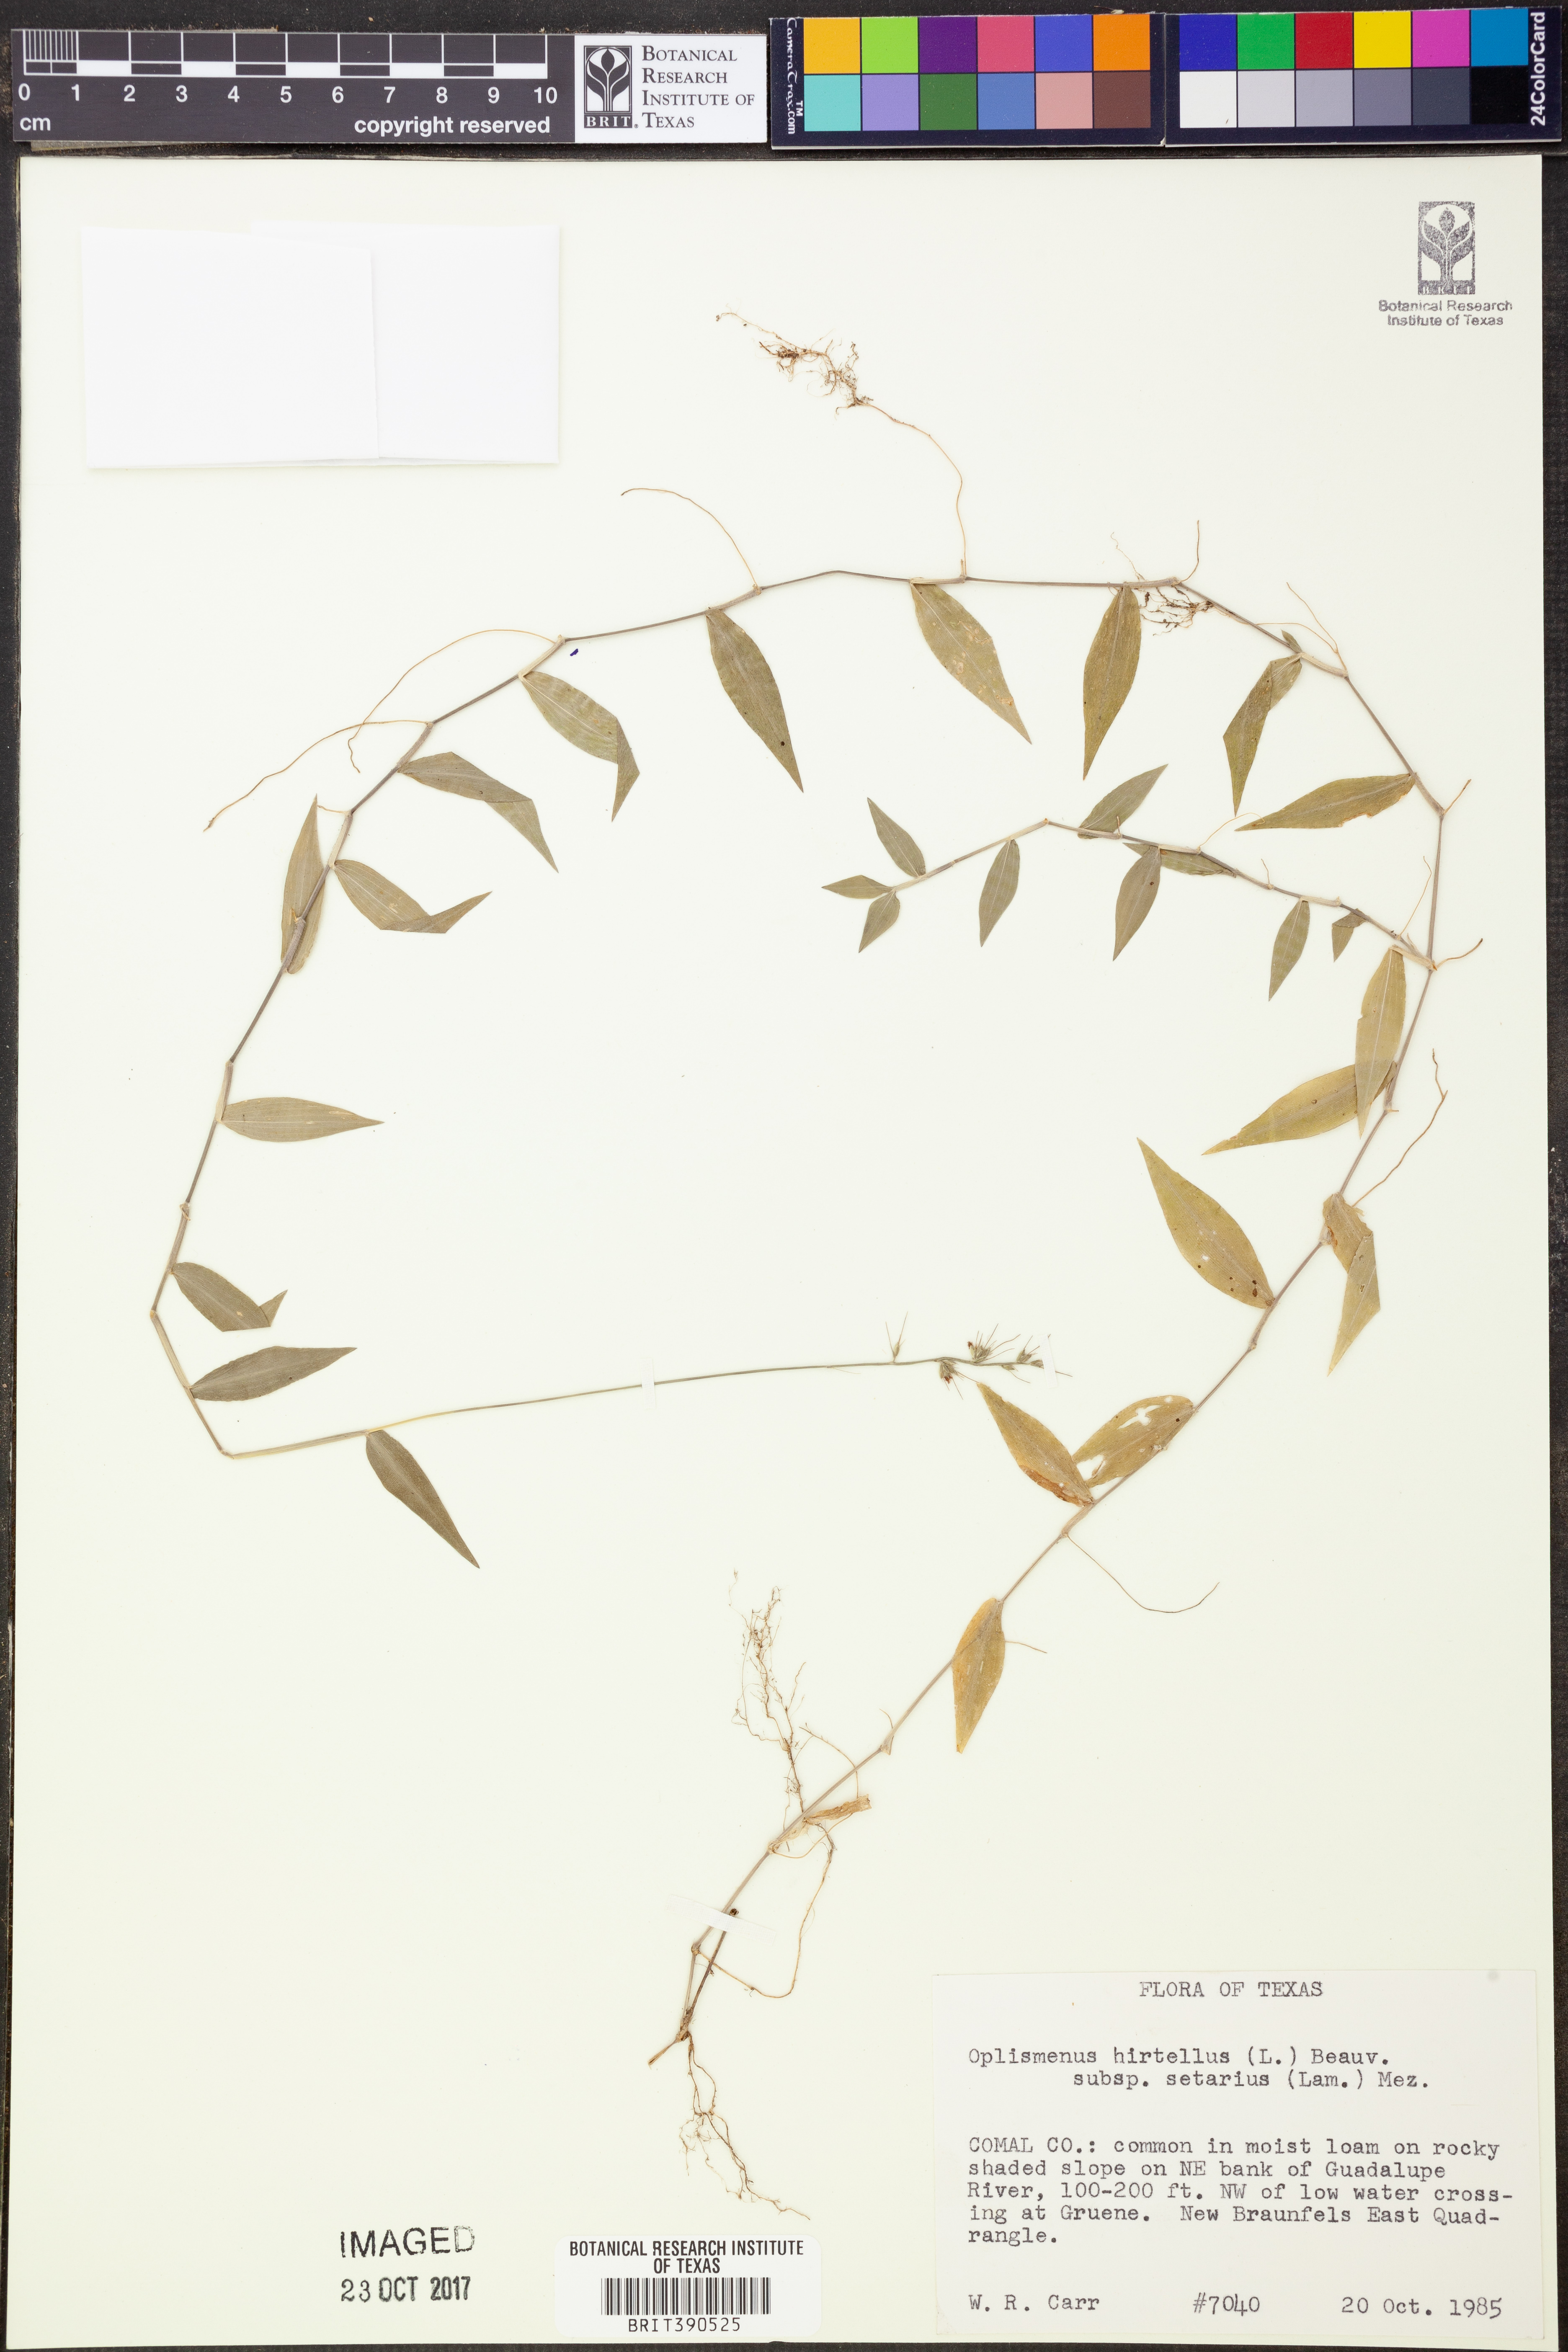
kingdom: Plantae
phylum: Tracheophyta
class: Liliopsida
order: Poales
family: Poaceae
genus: Oplismenus
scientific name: Oplismenus hirtellus
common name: Basketgrass
